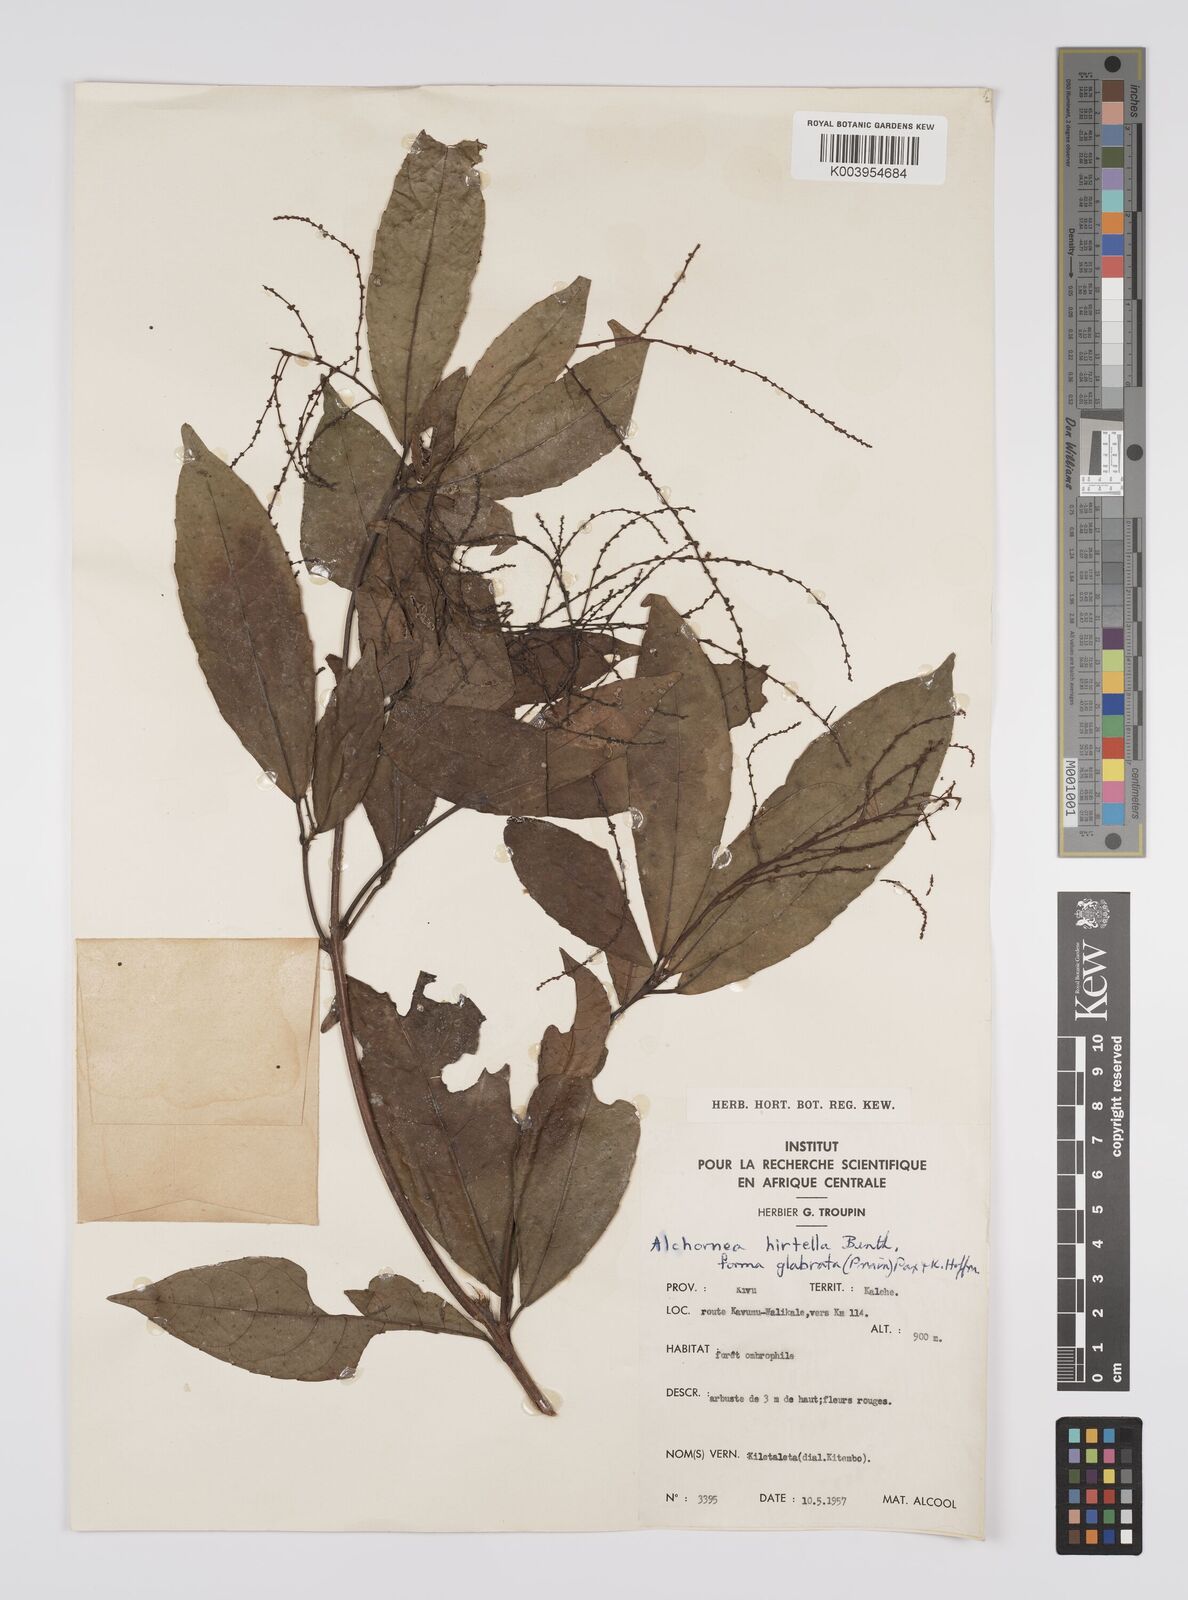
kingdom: Plantae
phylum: Tracheophyta
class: Magnoliopsida
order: Malpighiales
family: Euphorbiaceae
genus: Alchornea
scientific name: Alchornea hirtella
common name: Forest bead-string
